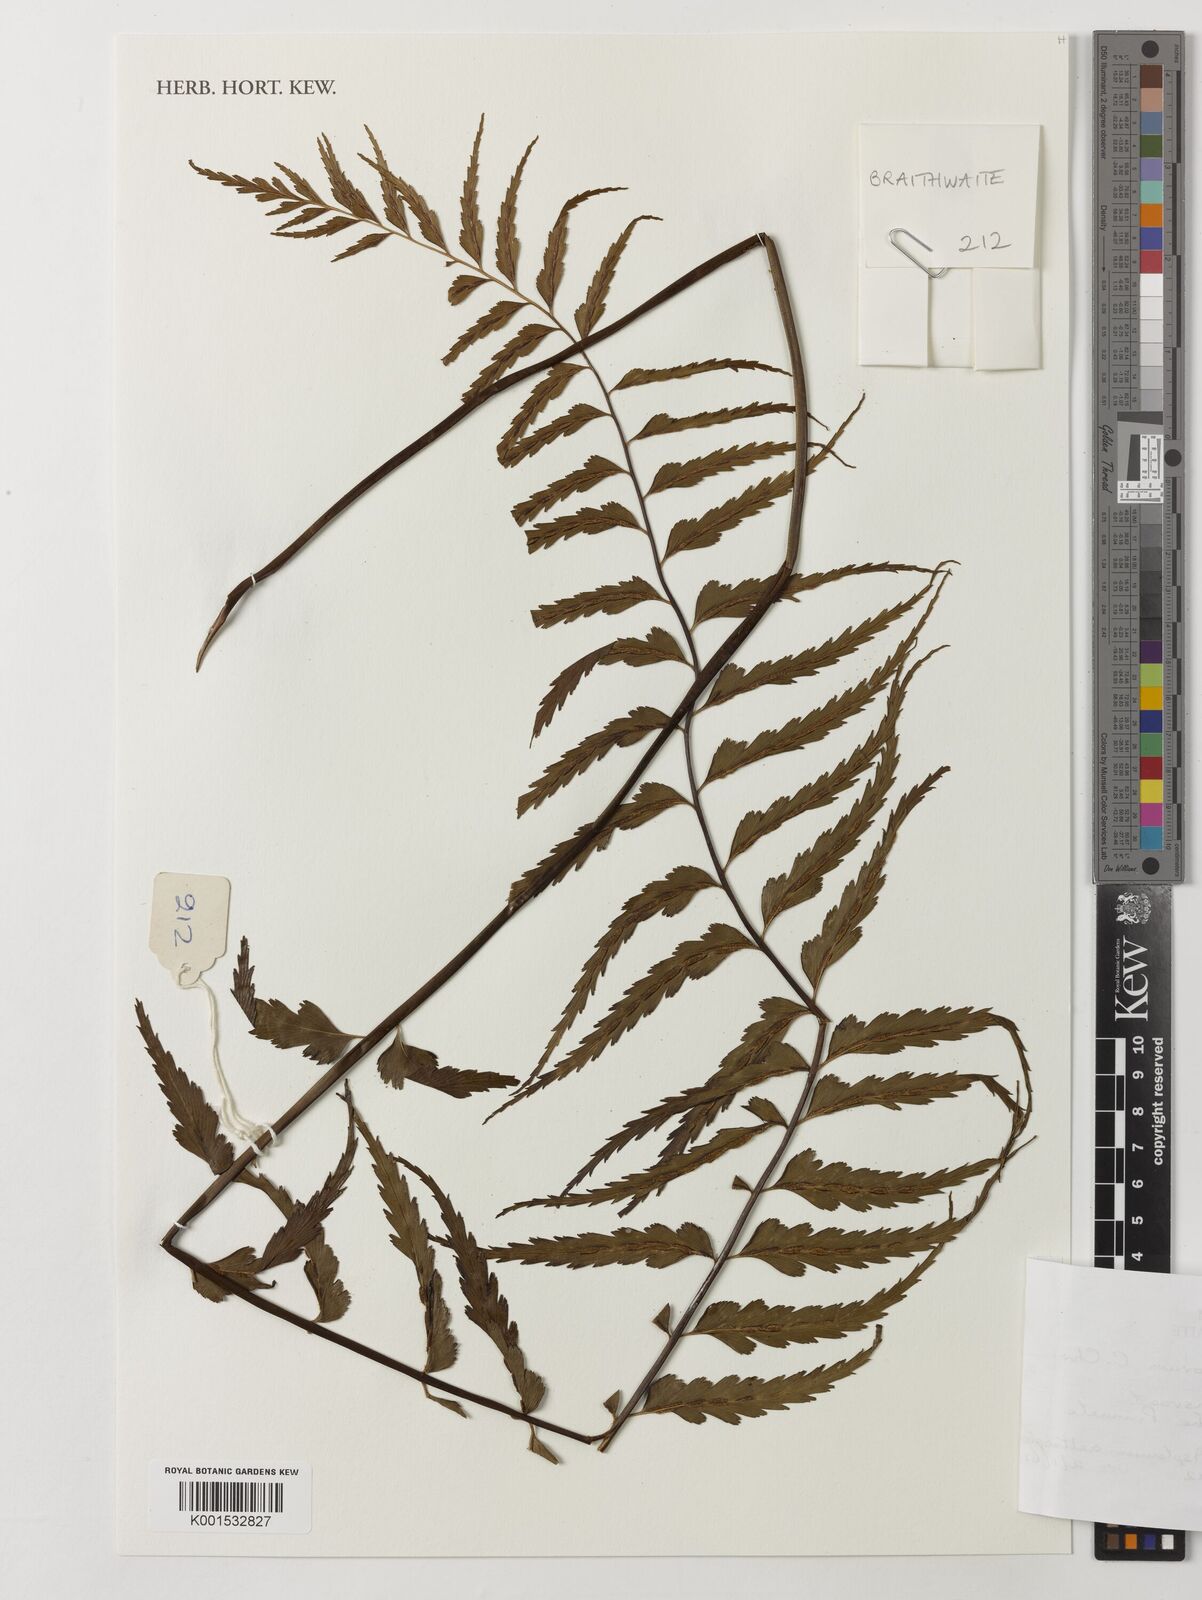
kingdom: Plantae
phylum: Tracheophyta
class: Polypodiopsida
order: Polypodiales
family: Aspleniaceae
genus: Asplenium
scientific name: Asplenium gueinzianum
